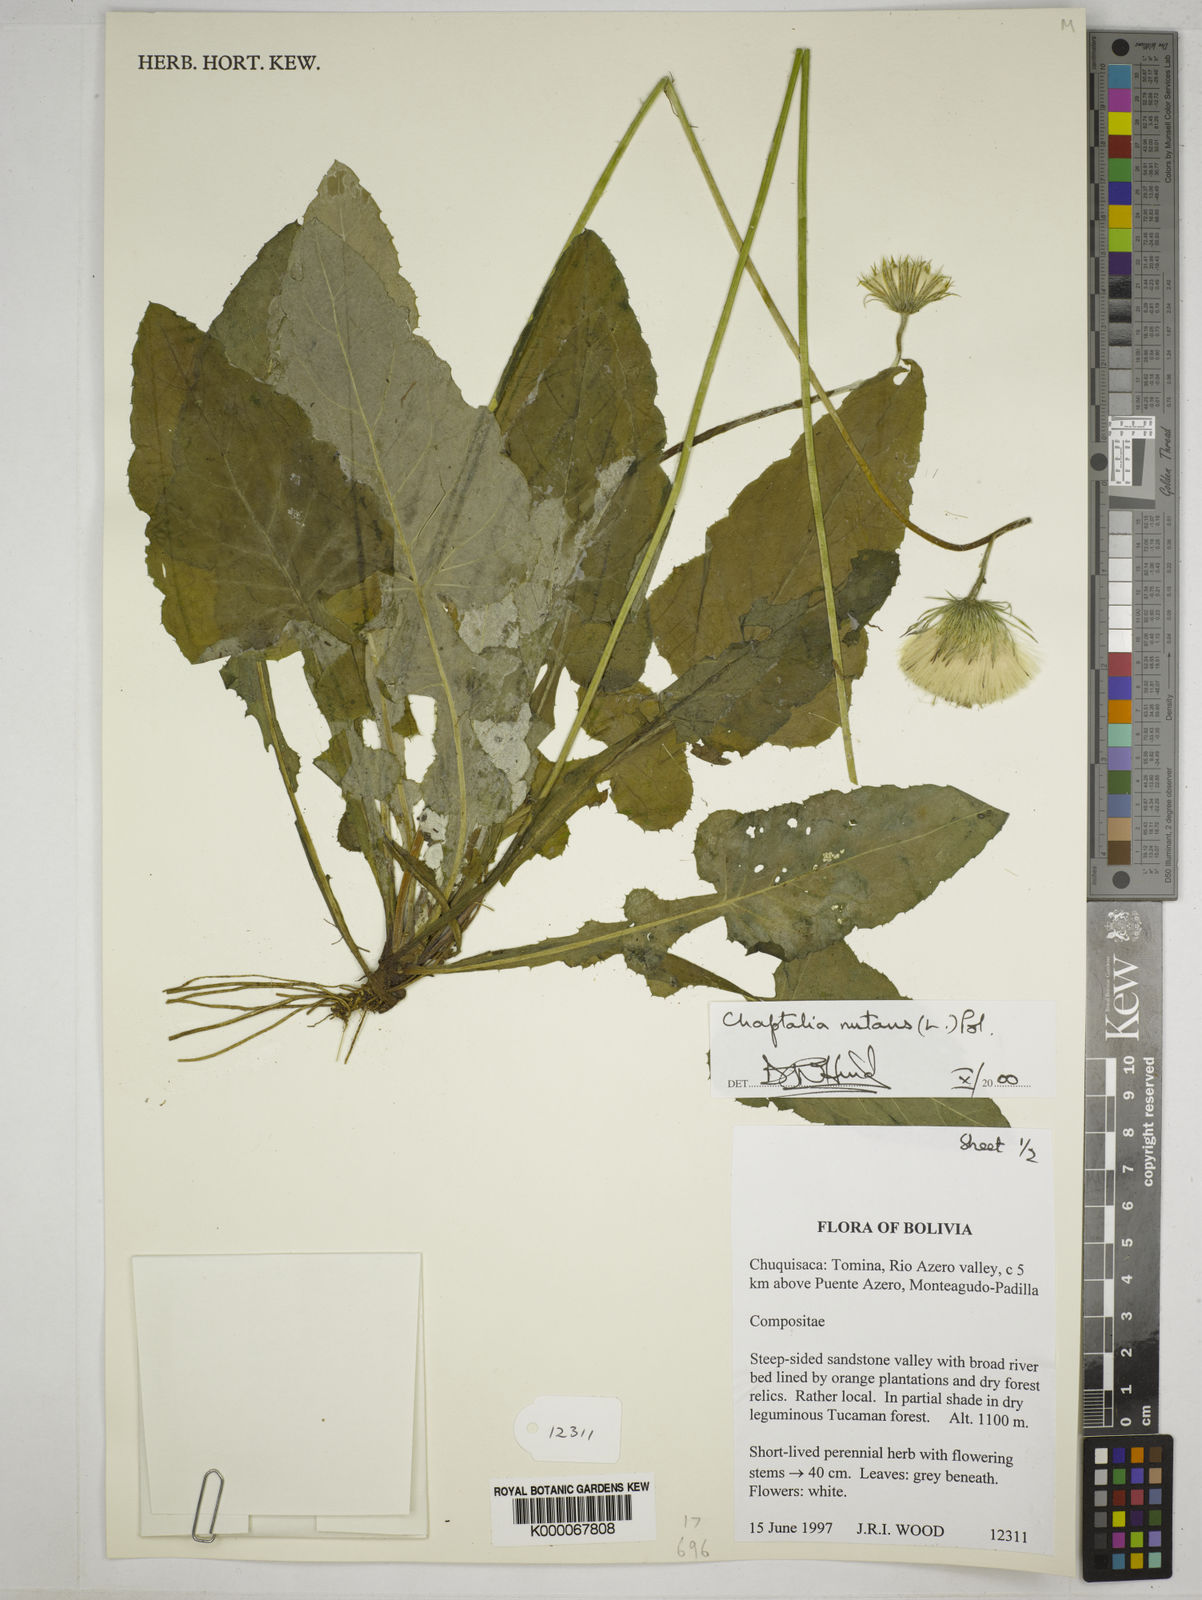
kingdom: Plantae
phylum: Tracheophyta
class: Magnoliopsida
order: Asterales
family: Asteraceae
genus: Chaptalia
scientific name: Chaptalia nutans
